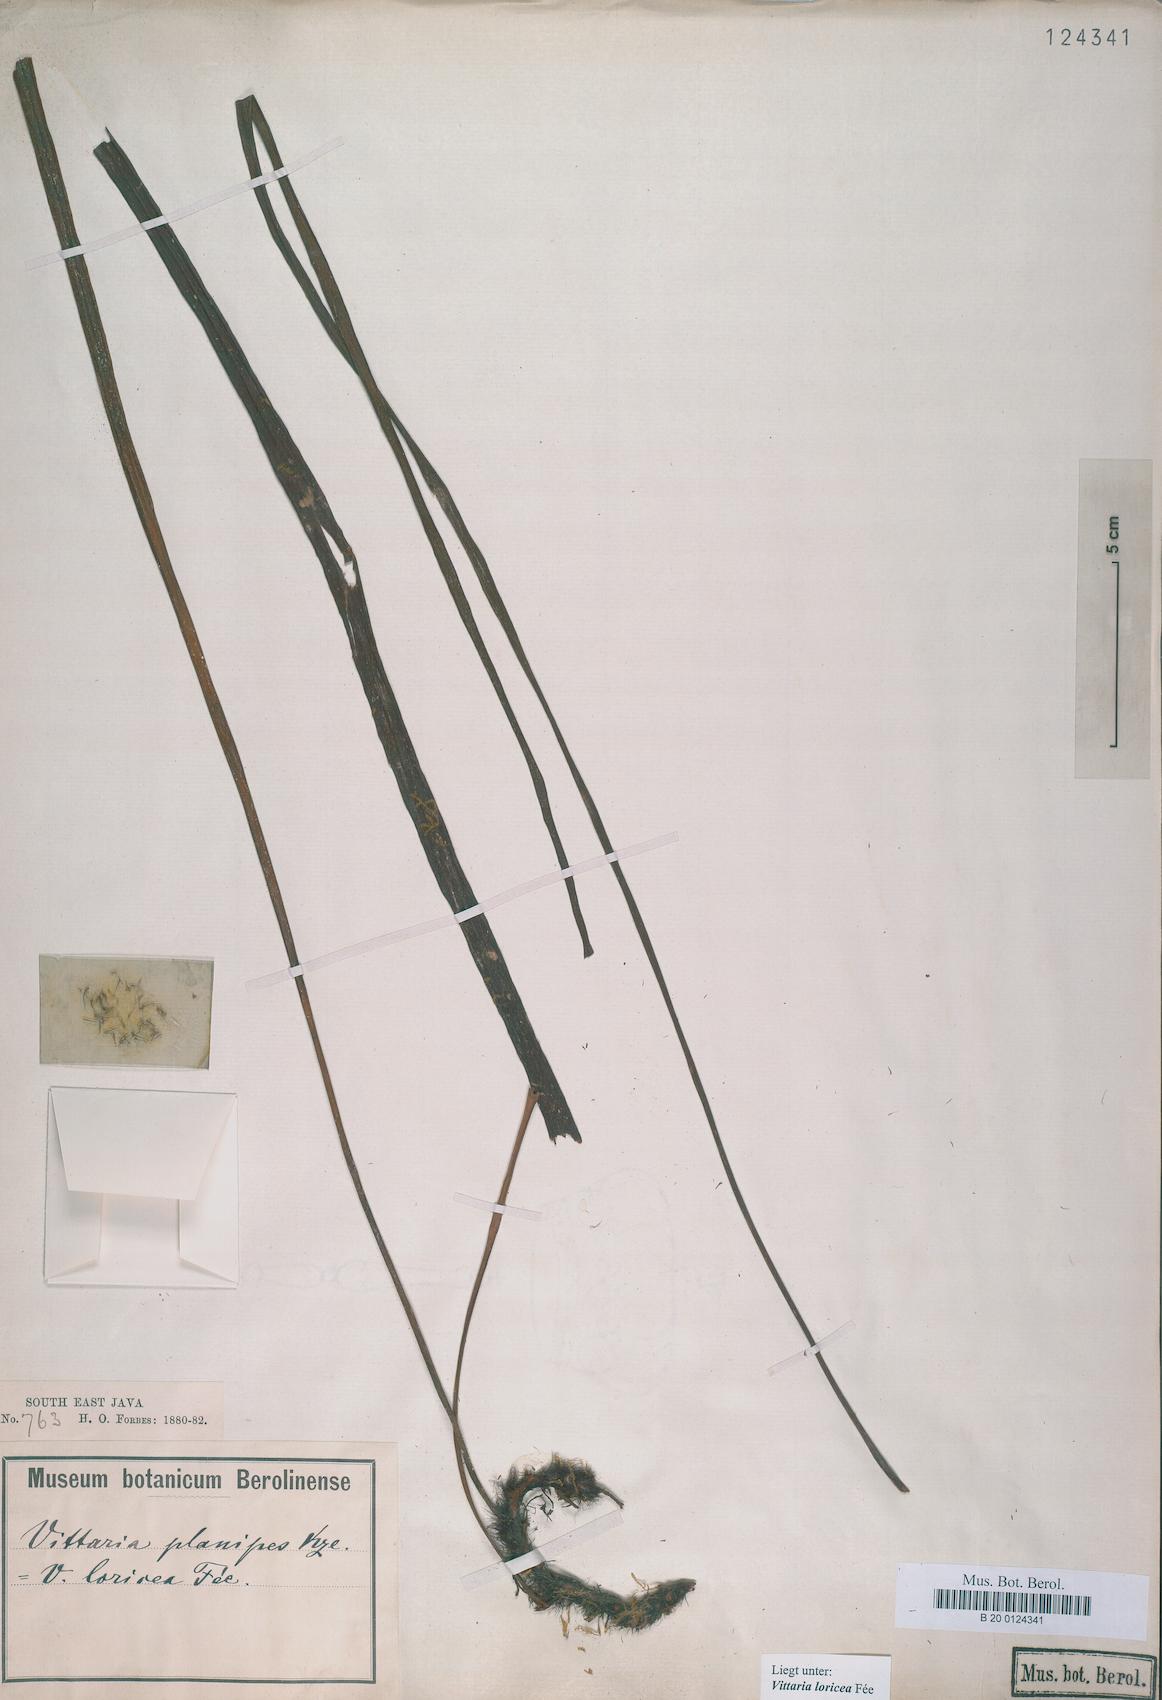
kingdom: Plantae
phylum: Tracheophyta
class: Polypodiopsida
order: Polypodiales
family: Pteridaceae
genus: Haplopteris
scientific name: Haplopteris zosterifolia
